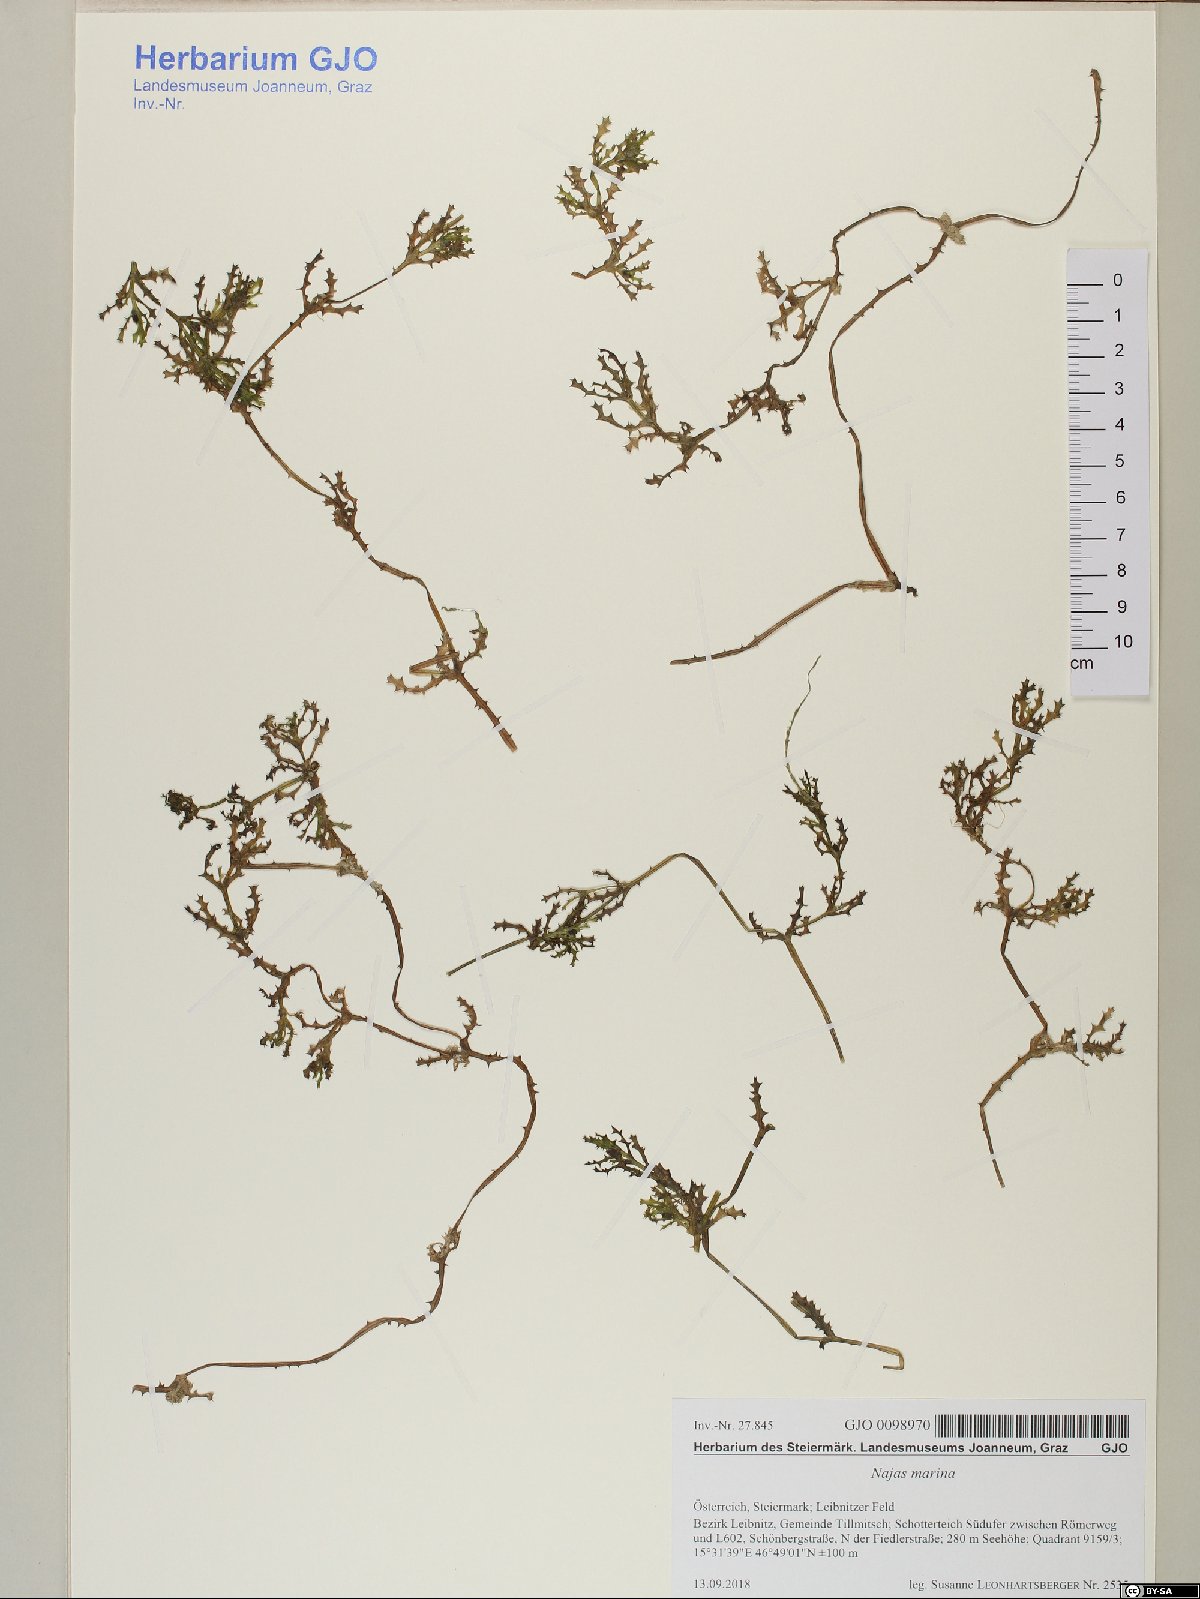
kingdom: Plantae
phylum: Tracheophyta
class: Liliopsida
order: Alismatales
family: Hydrocharitaceae
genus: Najas
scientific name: Najas marina
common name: Holly-leaved naiad
